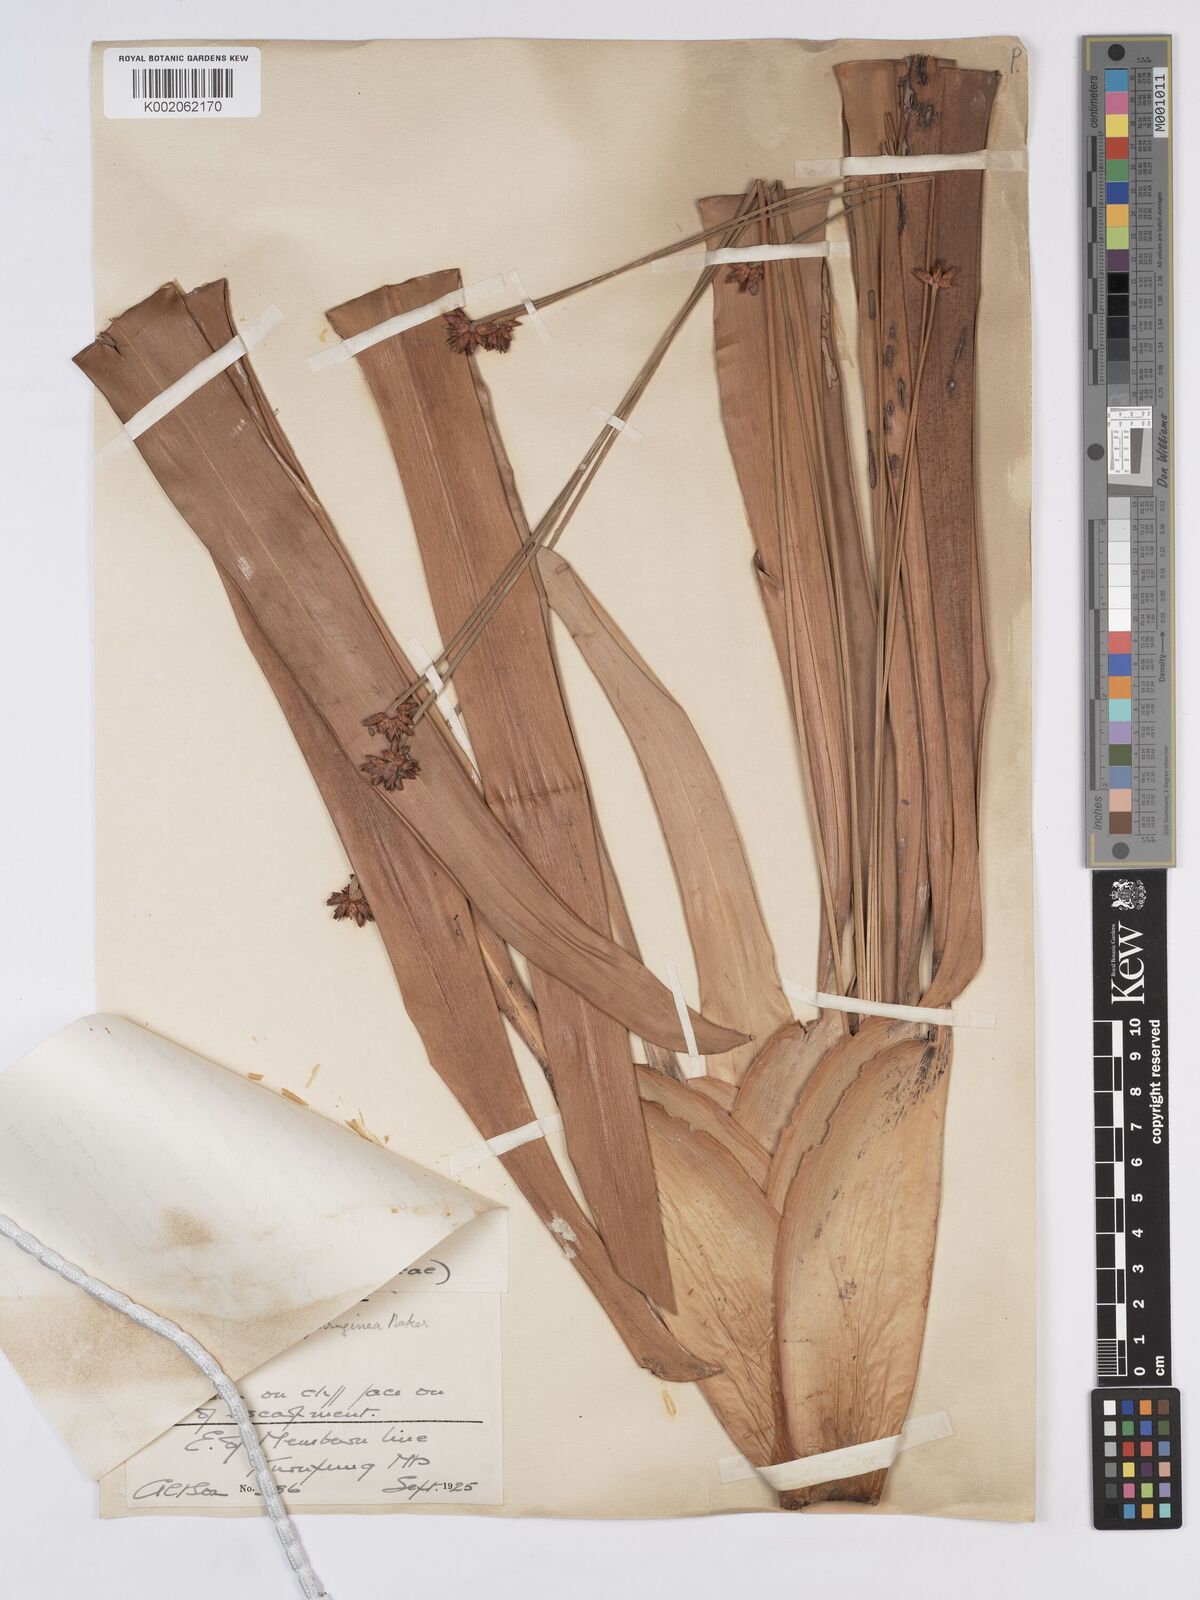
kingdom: Plantae
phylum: Tracheophyta
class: Liliopsida
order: Poales
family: Rapateaceae
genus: Stegolepis
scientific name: Stegolepis ferruginea
